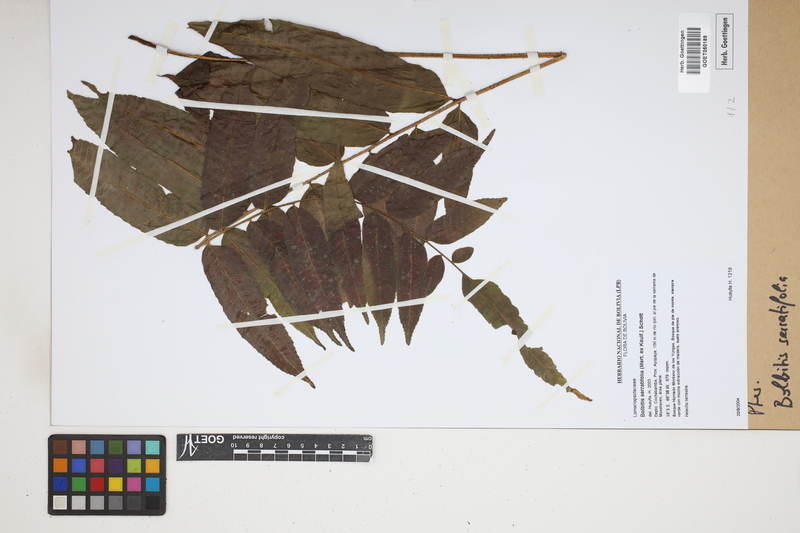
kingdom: Plantae
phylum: Tracheophyta
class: Polypodiopsida
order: Polypodiales
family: Dryopteridaceae
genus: Bolbitis
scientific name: Bolbitis serratifolia
